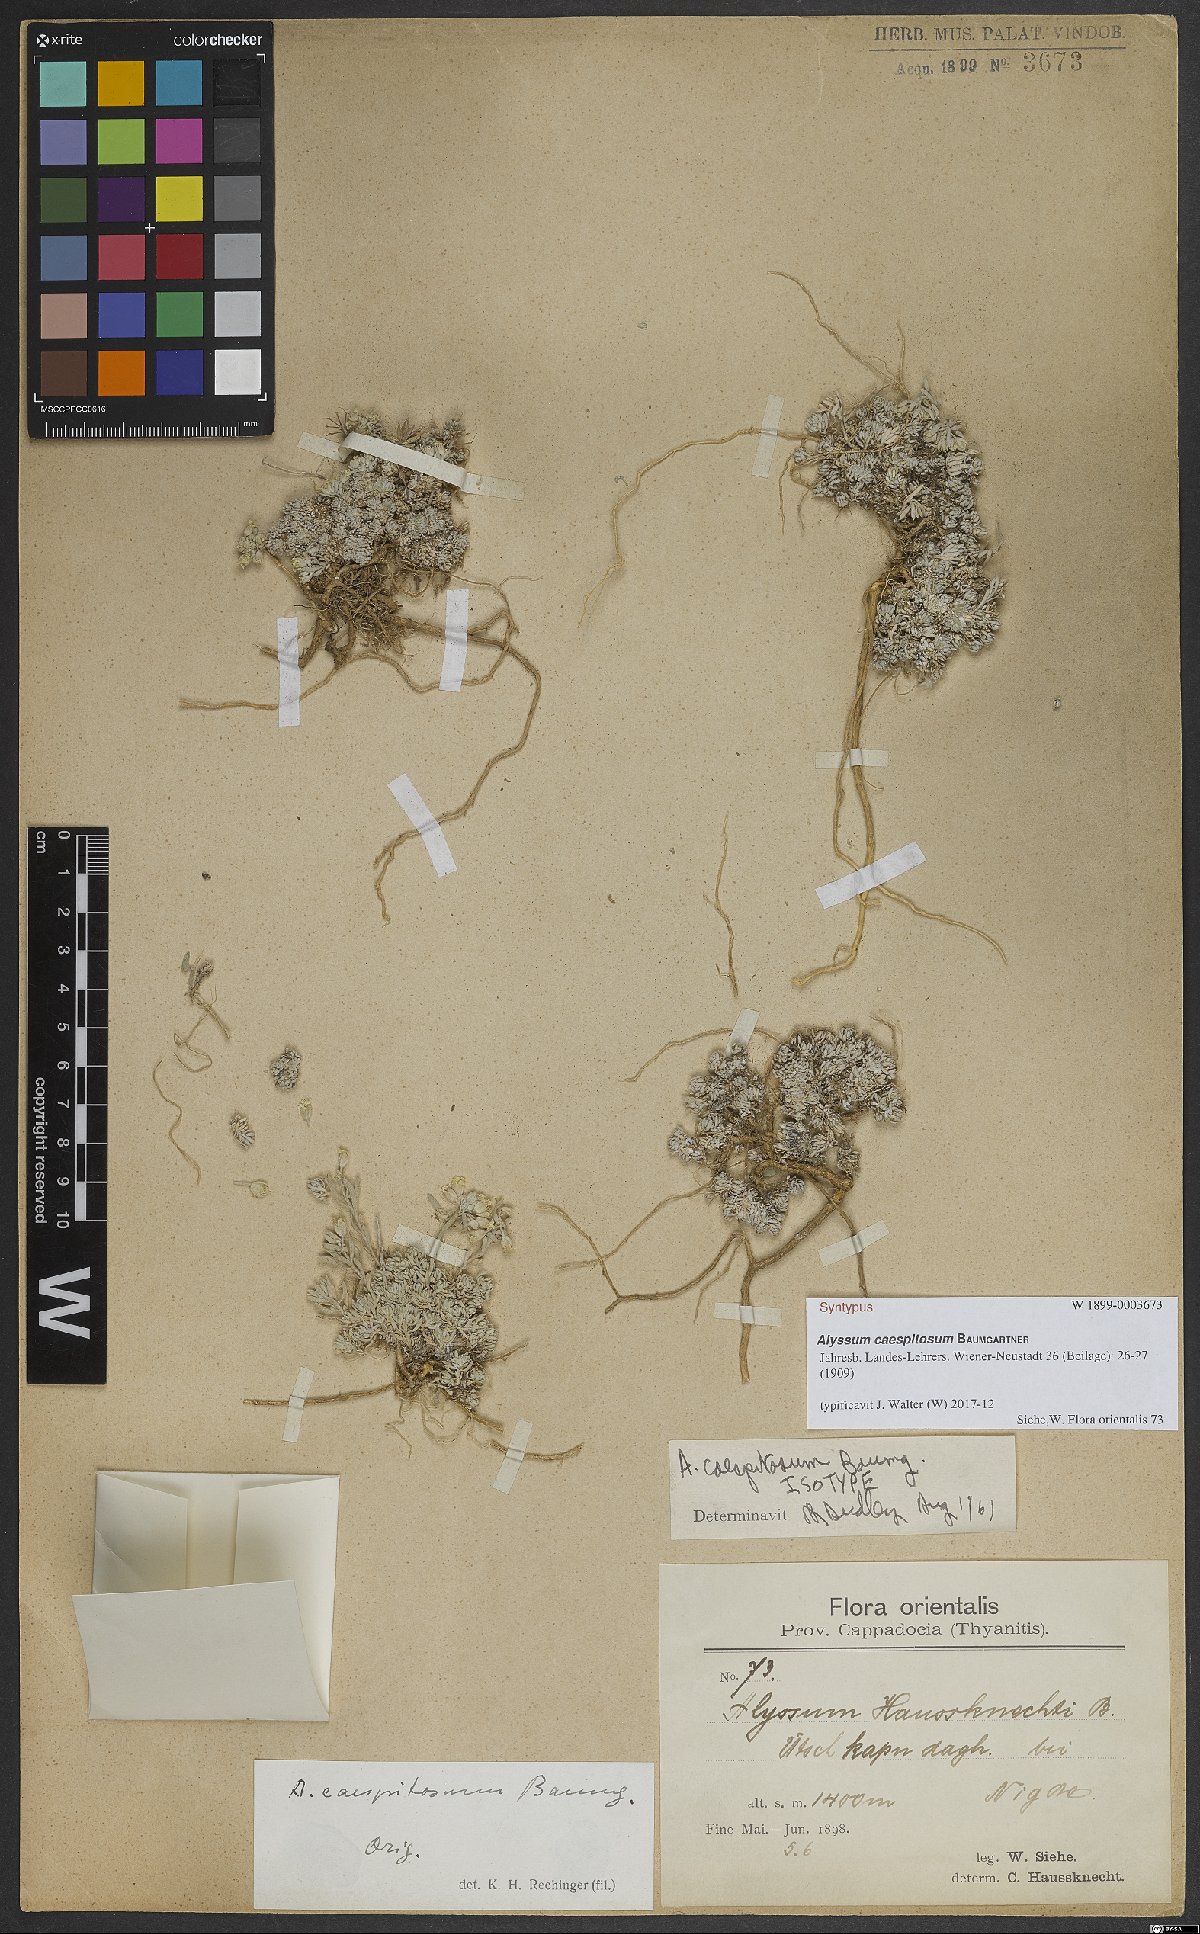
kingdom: Plantae
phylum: Tracheophyta
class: Magnoliopsida
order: Brassicales
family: Brassicaceae
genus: Alyssum
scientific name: Alyssum caespitosum
